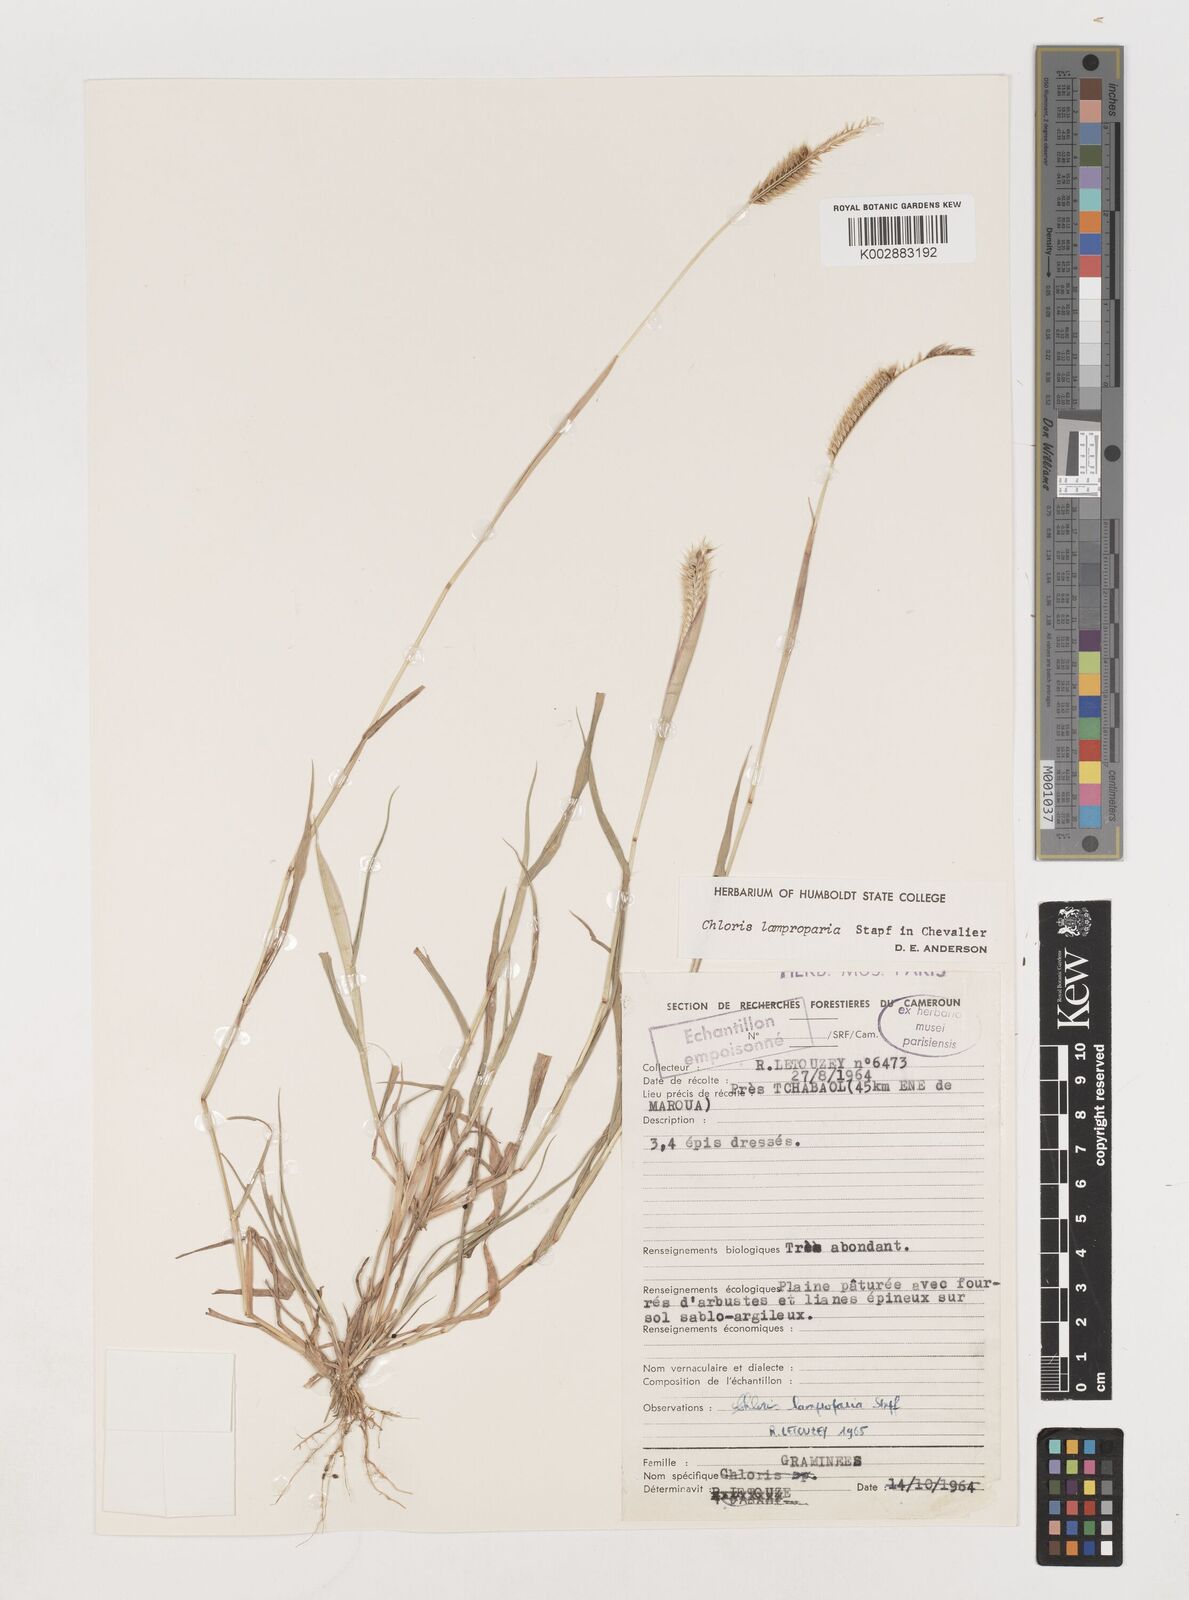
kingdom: Plantae
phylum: Tracheophyta
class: Liliopsida
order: Poales
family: Poaceae
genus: Stapfochloa
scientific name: Stapfochloa lamproparia
